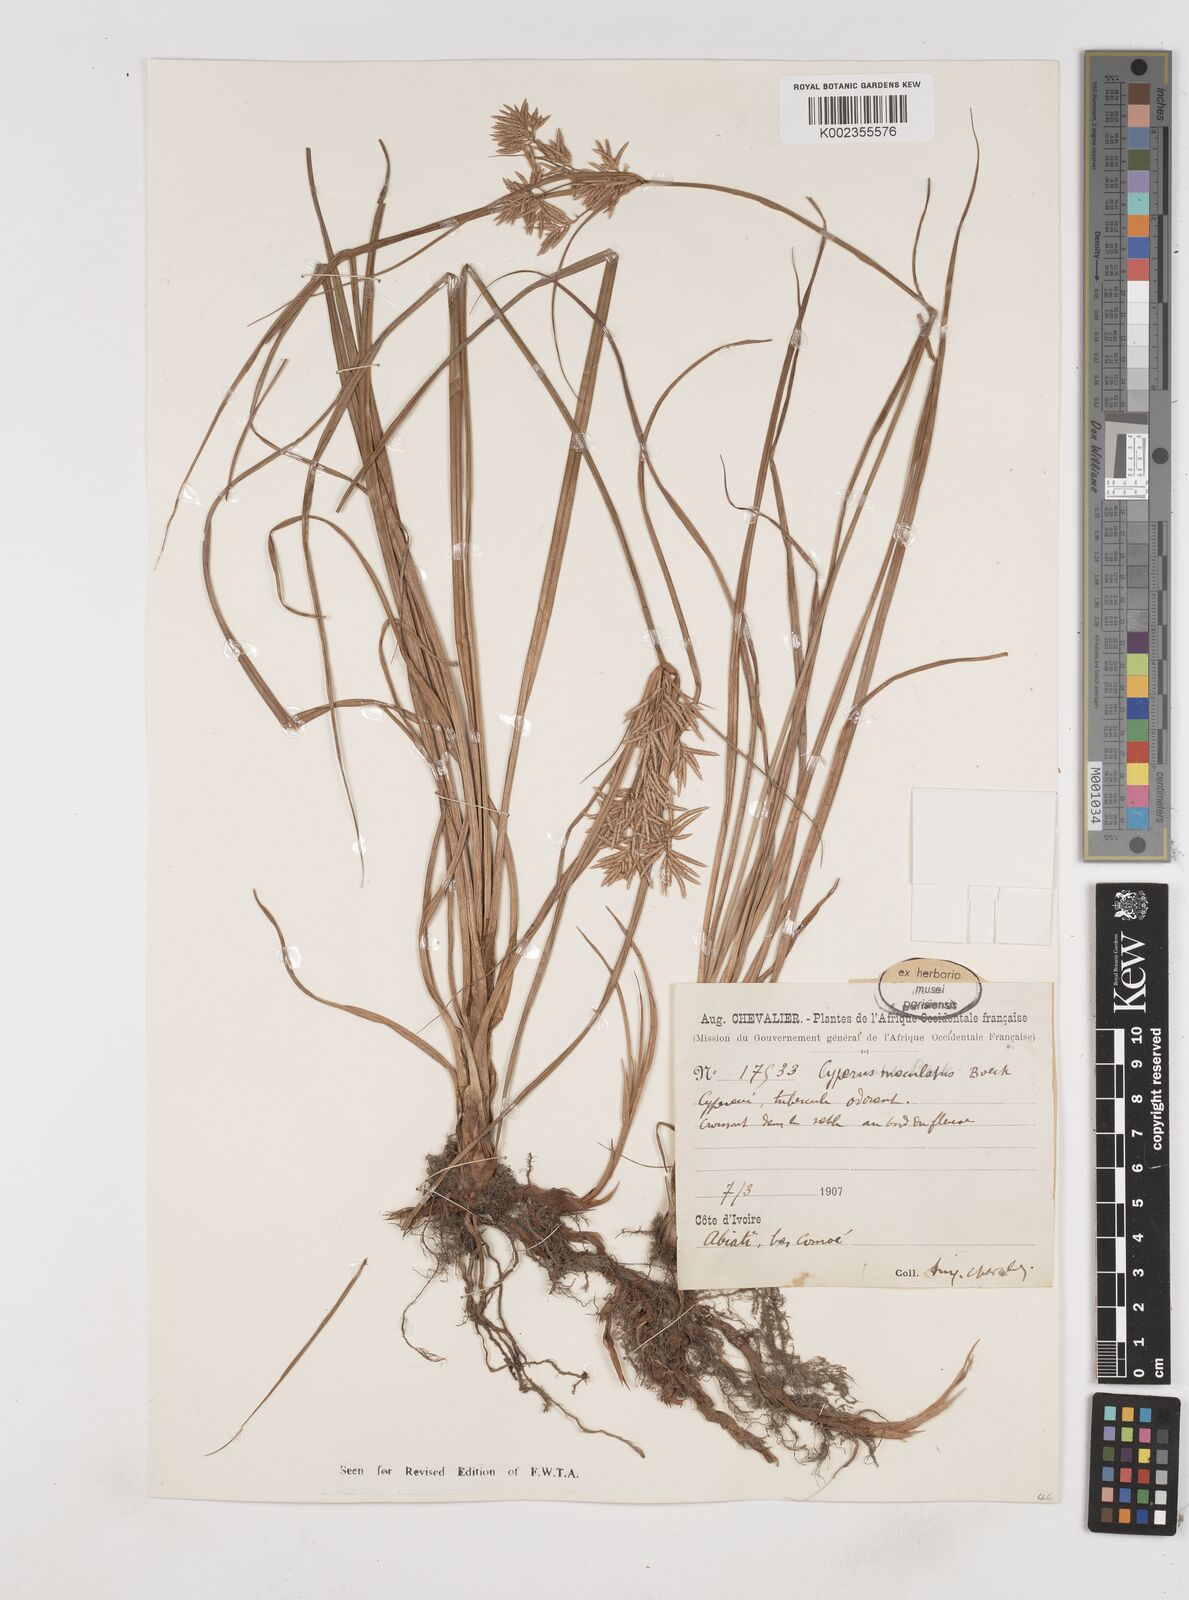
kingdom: Plantae
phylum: Tracheophyta
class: Liliopsida
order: Poales
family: Cyperaceae
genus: Cyperus
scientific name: Cyperus maculatus
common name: Maculated sedge
